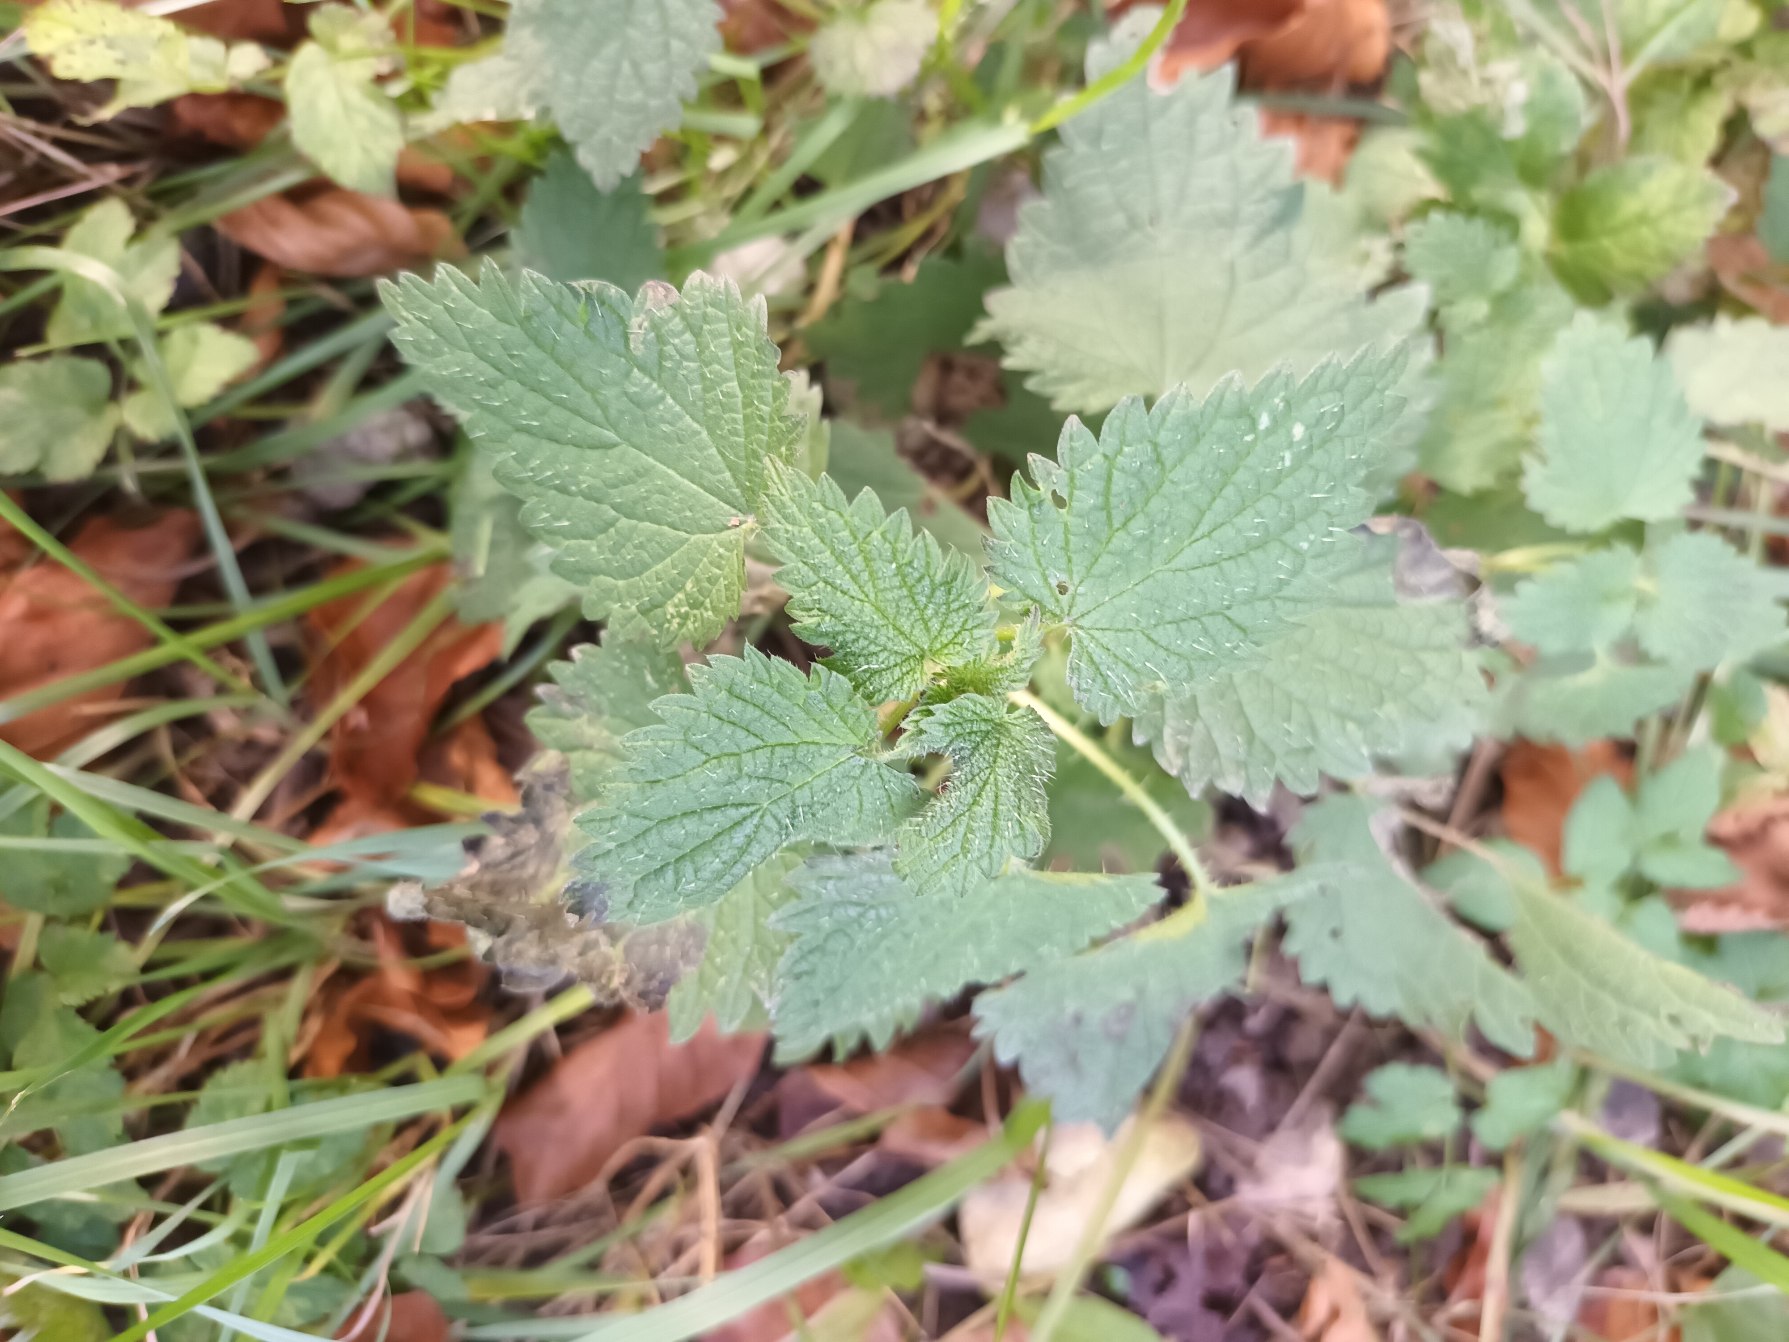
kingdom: Plantae
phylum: Tracheophyta
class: Magnoliopsida
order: Rosales
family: Urticaceae
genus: Urtica
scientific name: Urtica dioica
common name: Stor nælde
